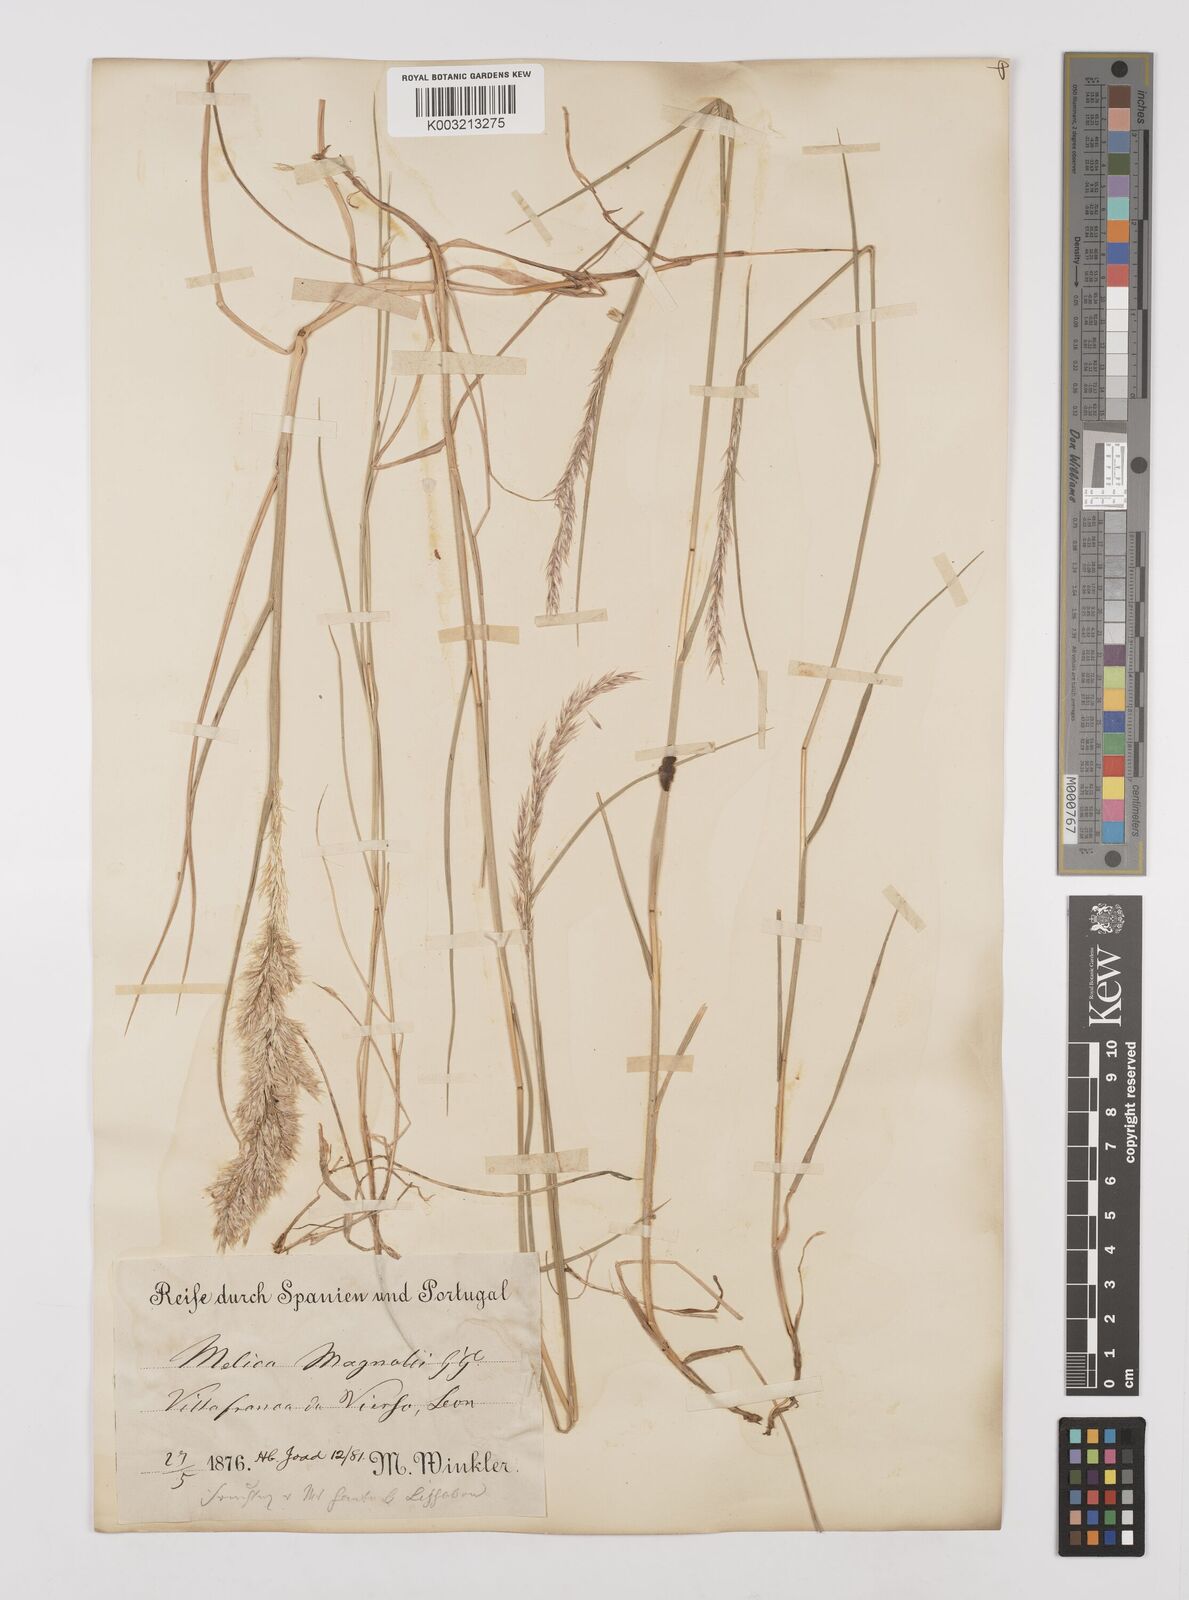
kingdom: Plantae
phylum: Tracheophyta
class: Liliopsida
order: Poales
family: Poaceae
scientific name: Poaceae
